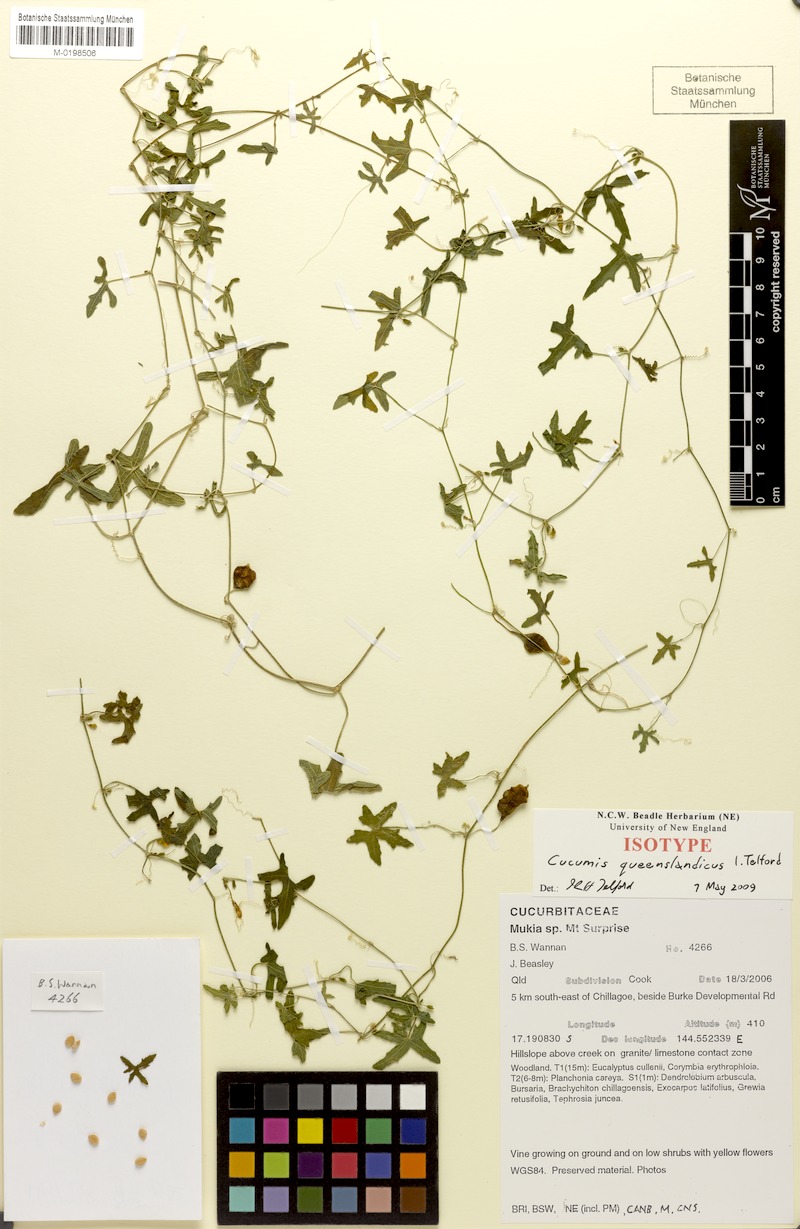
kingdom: Plantae
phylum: Tracheophyta
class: Magnoliopsida
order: Cucurbitales
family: Cucurbitaceae
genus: Cucumis
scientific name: Cucumis queenslandicus
